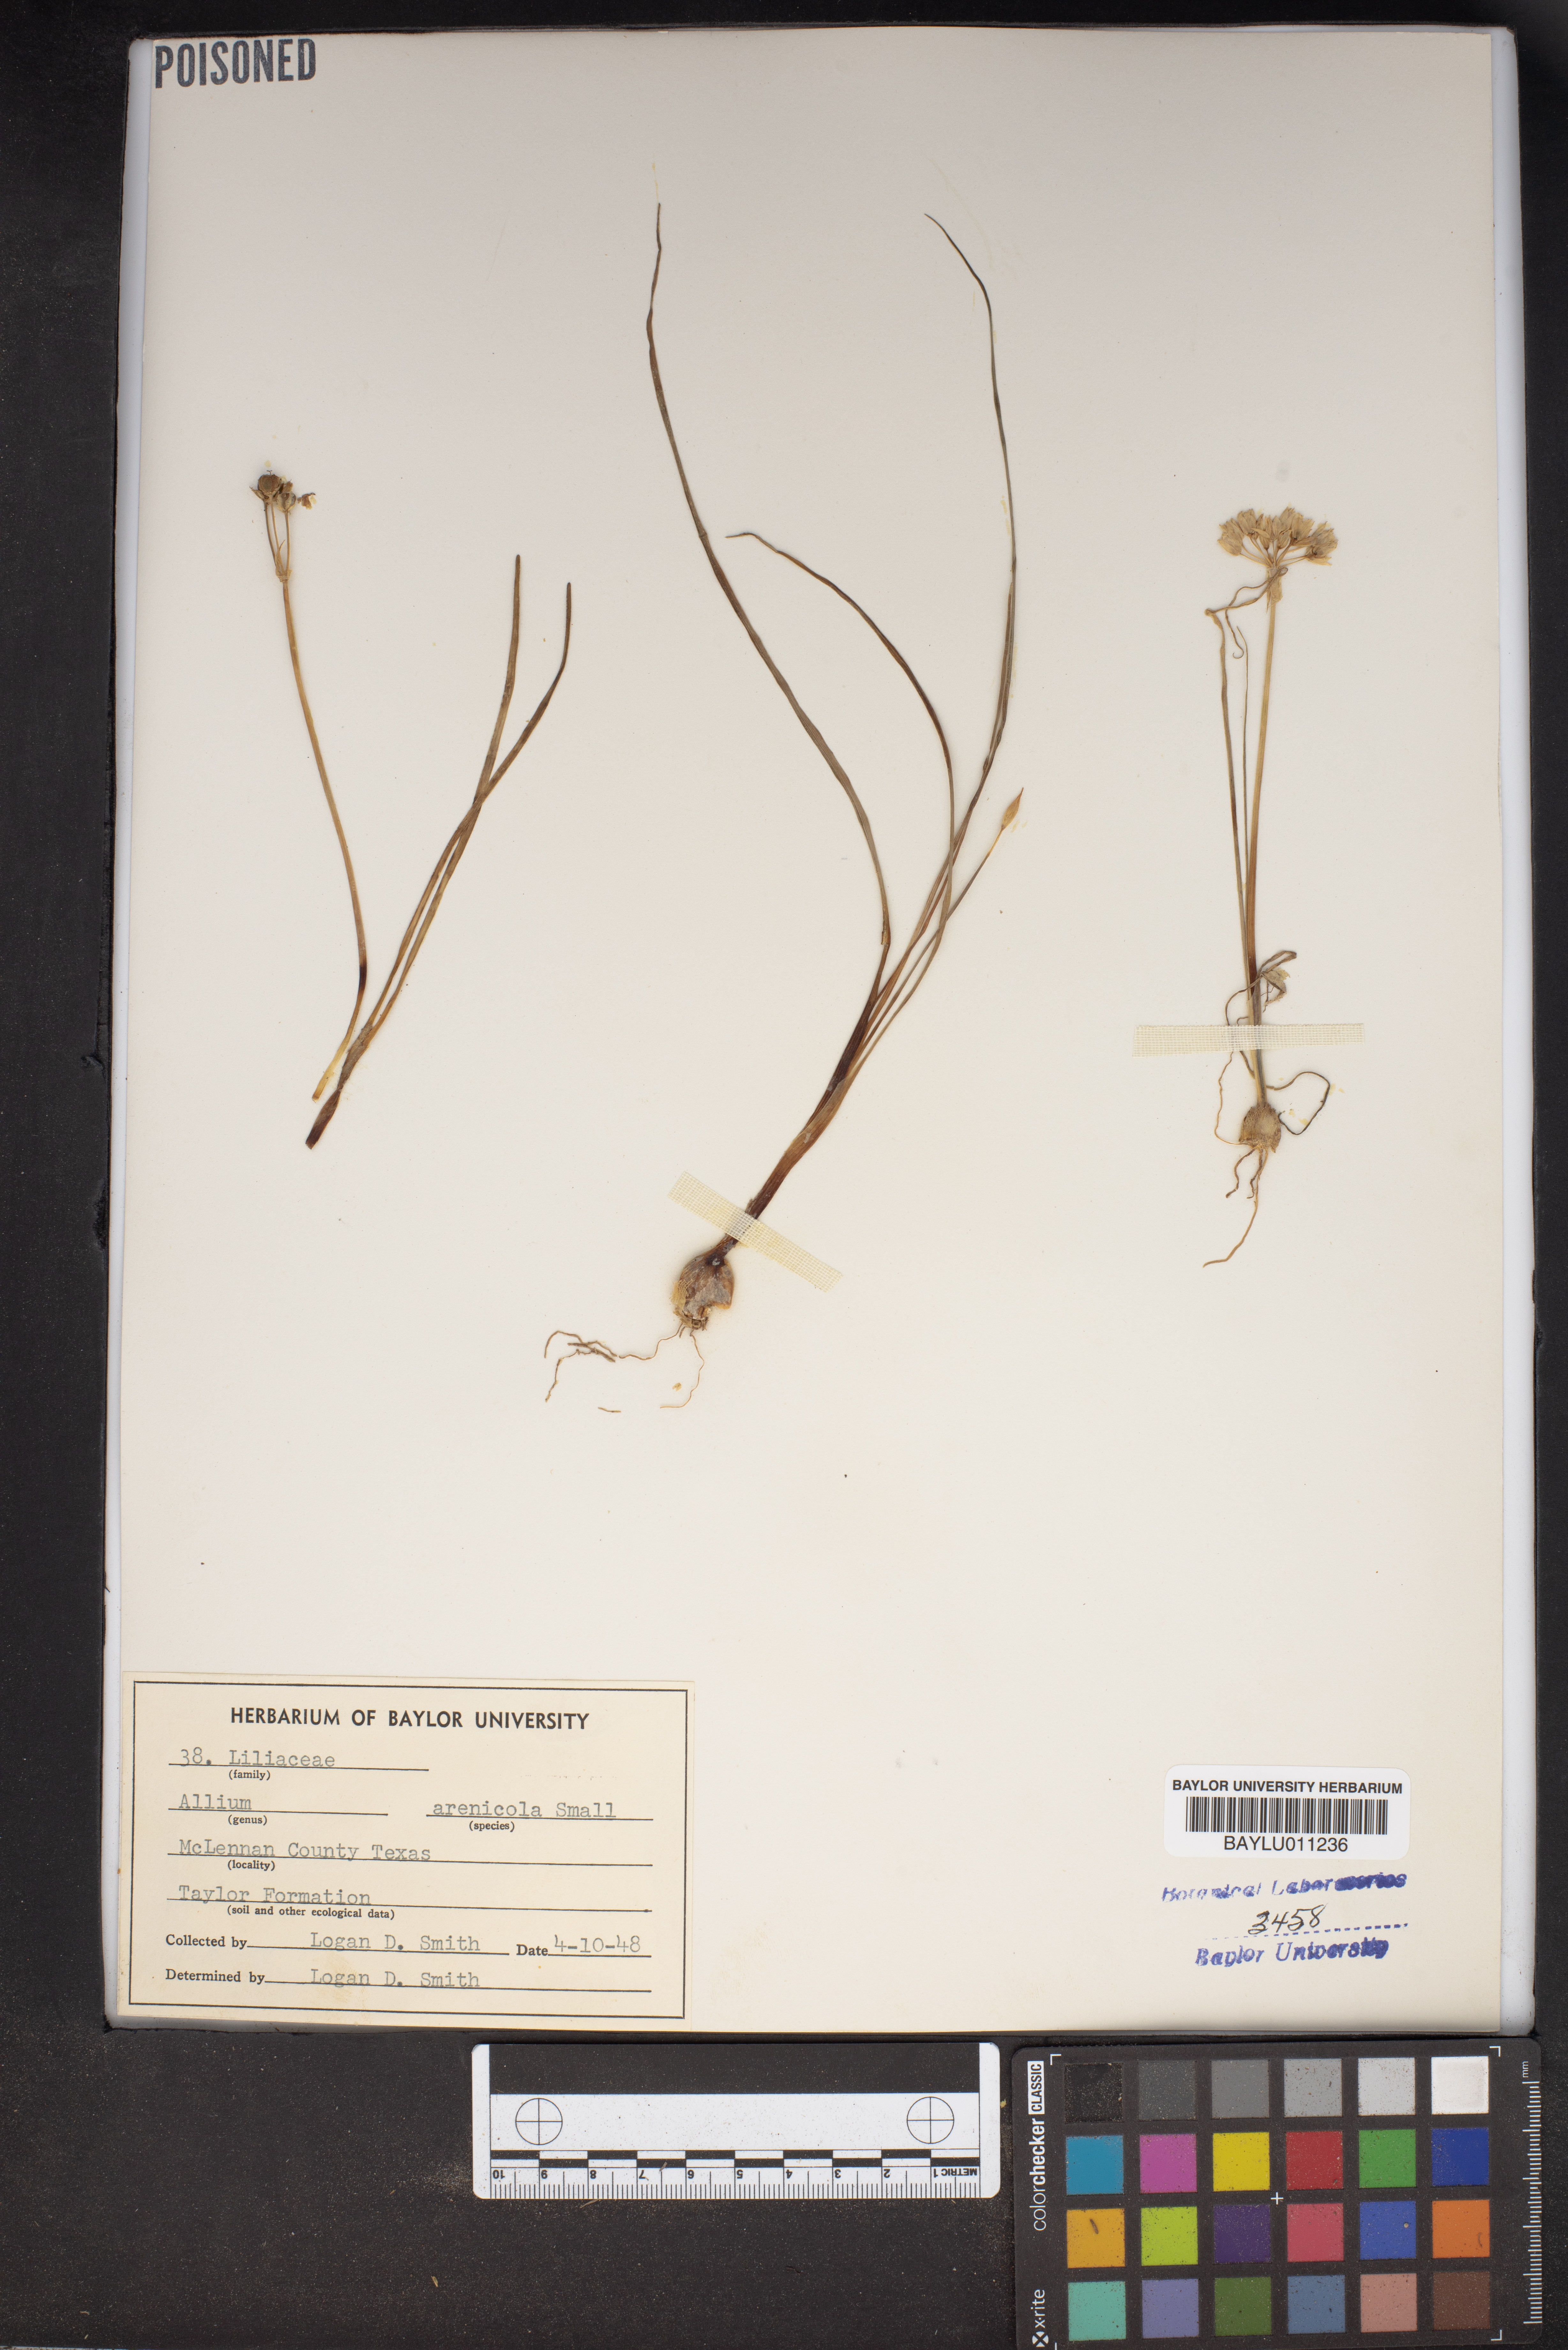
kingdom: Plantae
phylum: Tracheophyta
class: Liliopsida
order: Asparagales
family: Amaryllidaceae
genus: Allium
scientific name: Allium geyeri
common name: Geyer's onion
